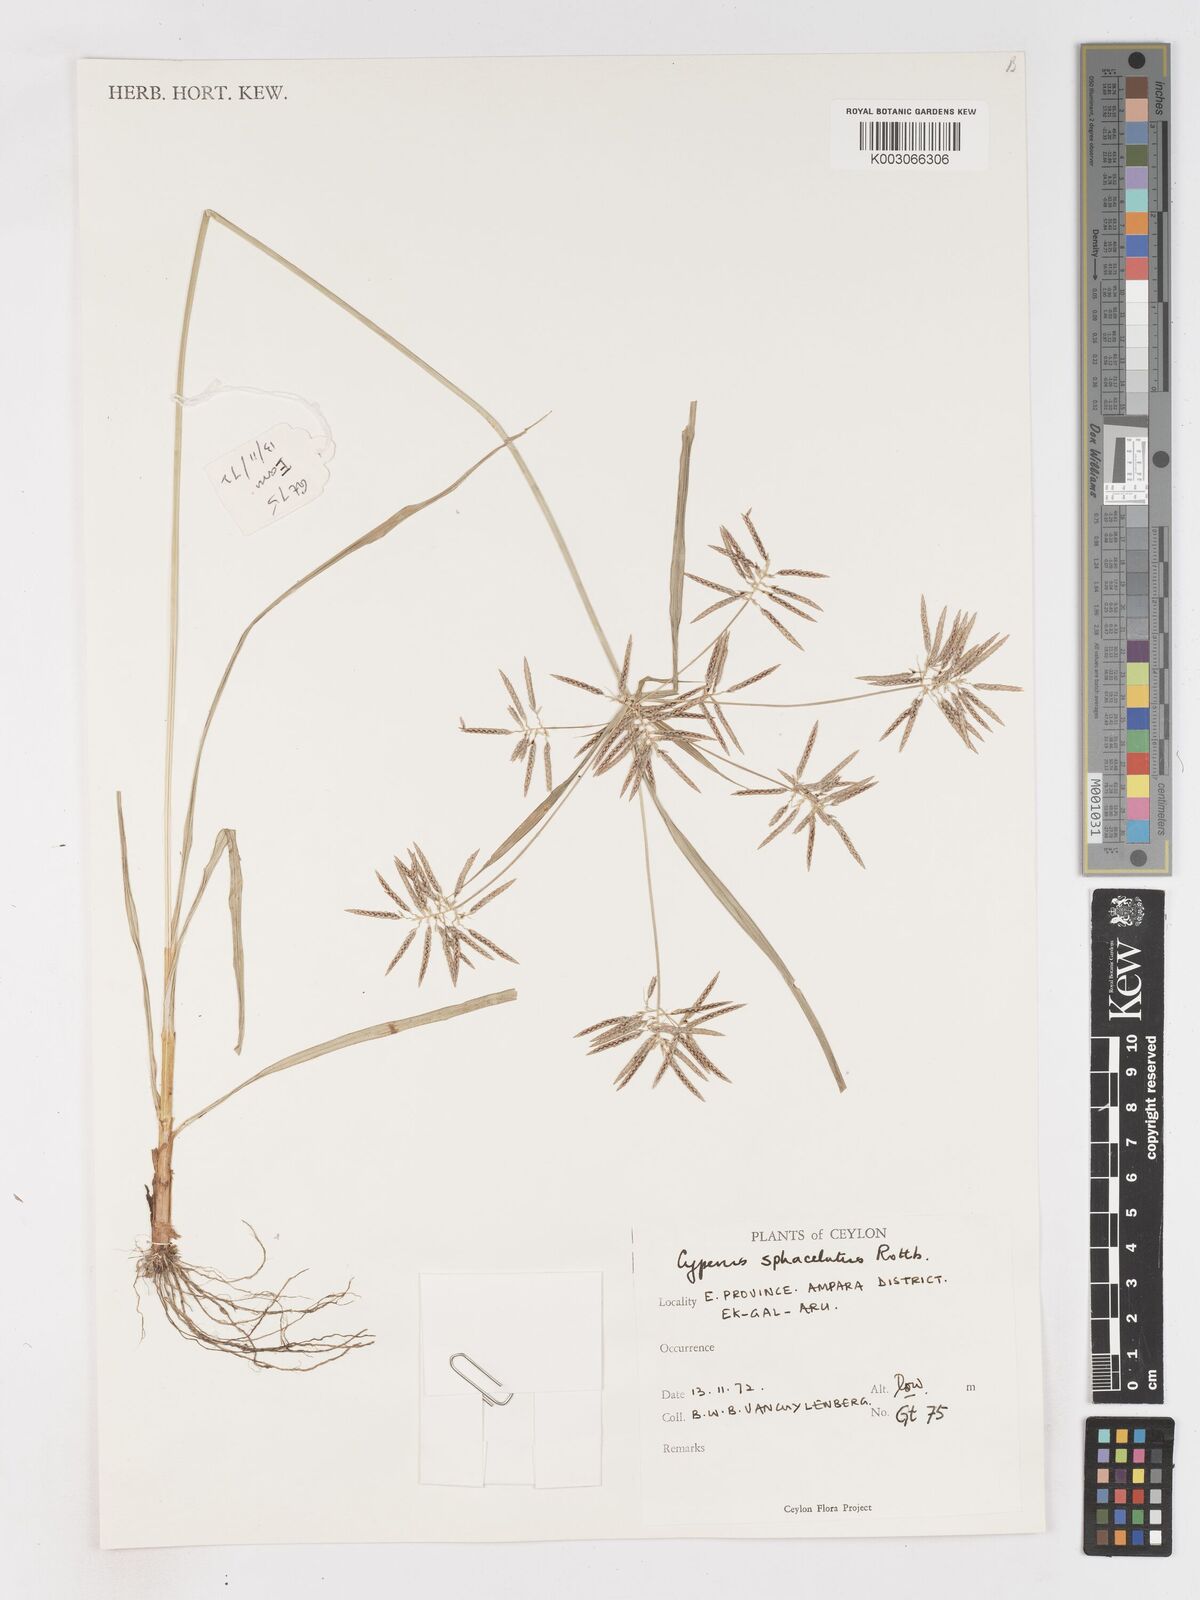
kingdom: Plantae
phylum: Tracheophyta
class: Liliopsida
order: Poales
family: Cyperaceae
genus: Cyperus
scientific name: Cyperus sphacelatus
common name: Roadside flatsedge
